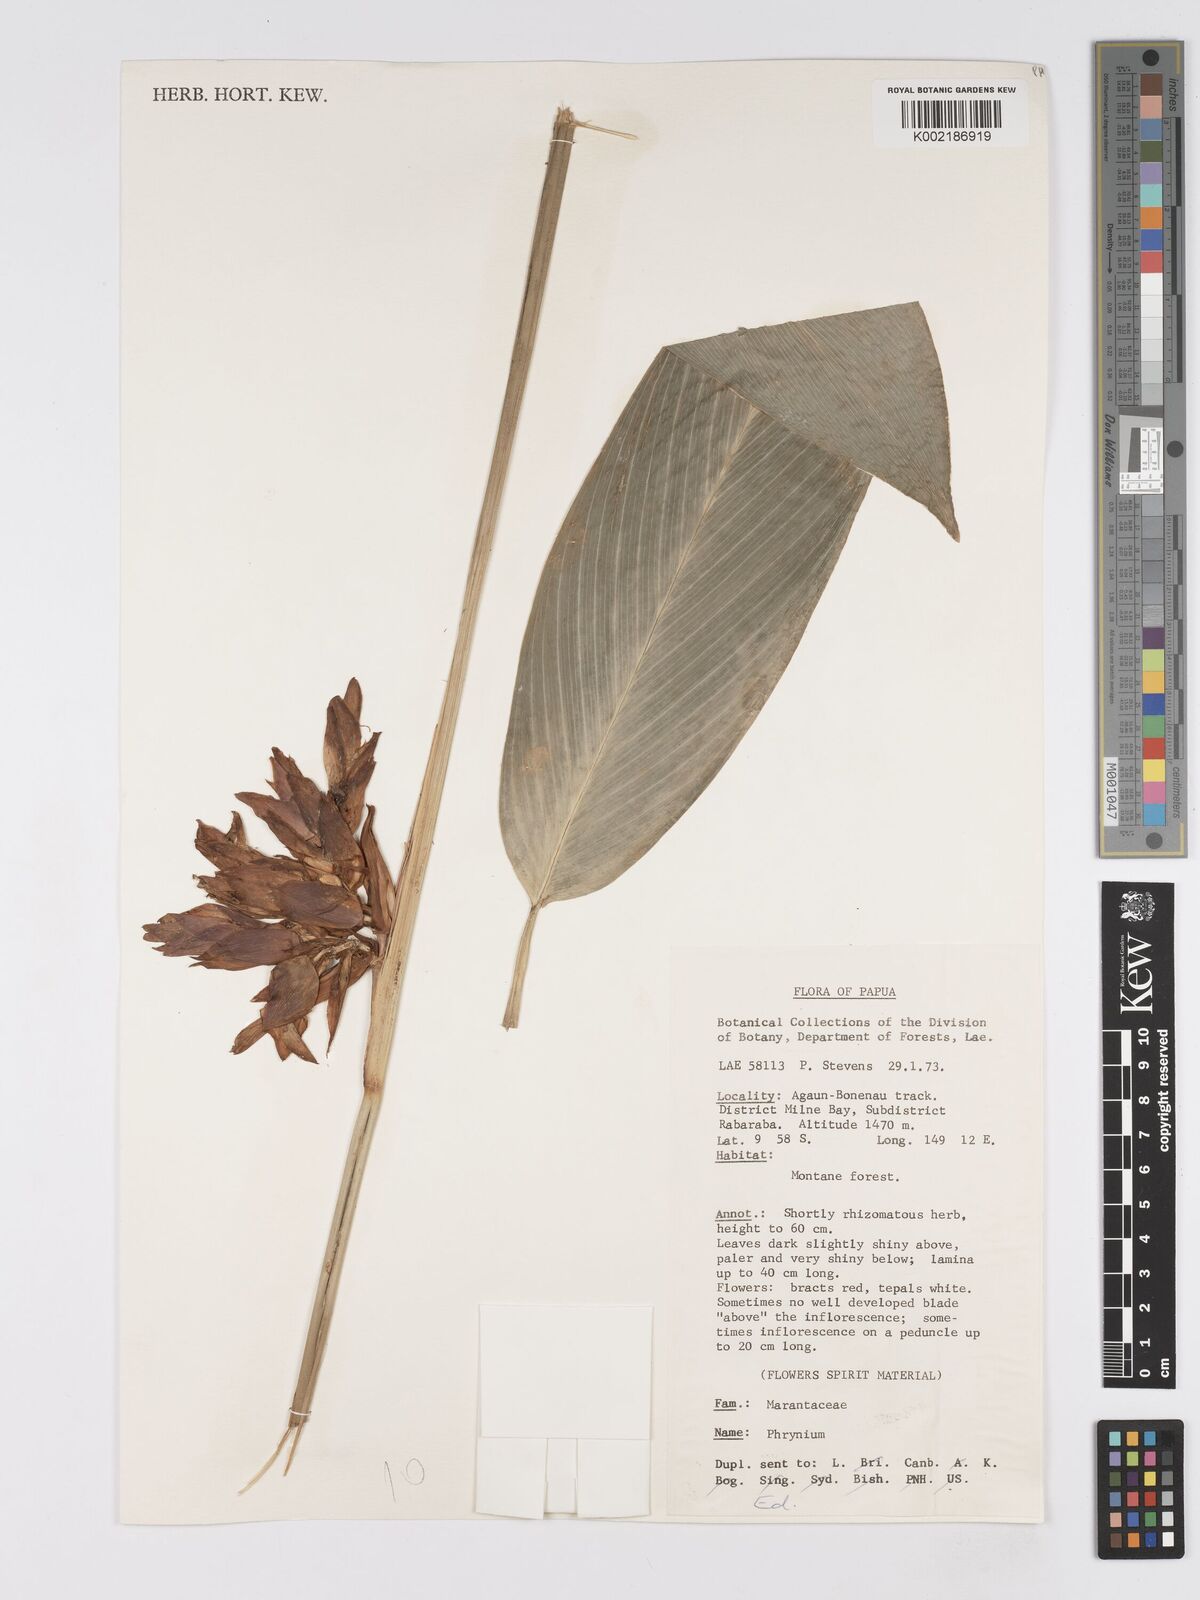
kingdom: Plantae
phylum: Tracheophyta
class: Liliopsida
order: Zingiberales
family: Marantaceae
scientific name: Marantaceae
